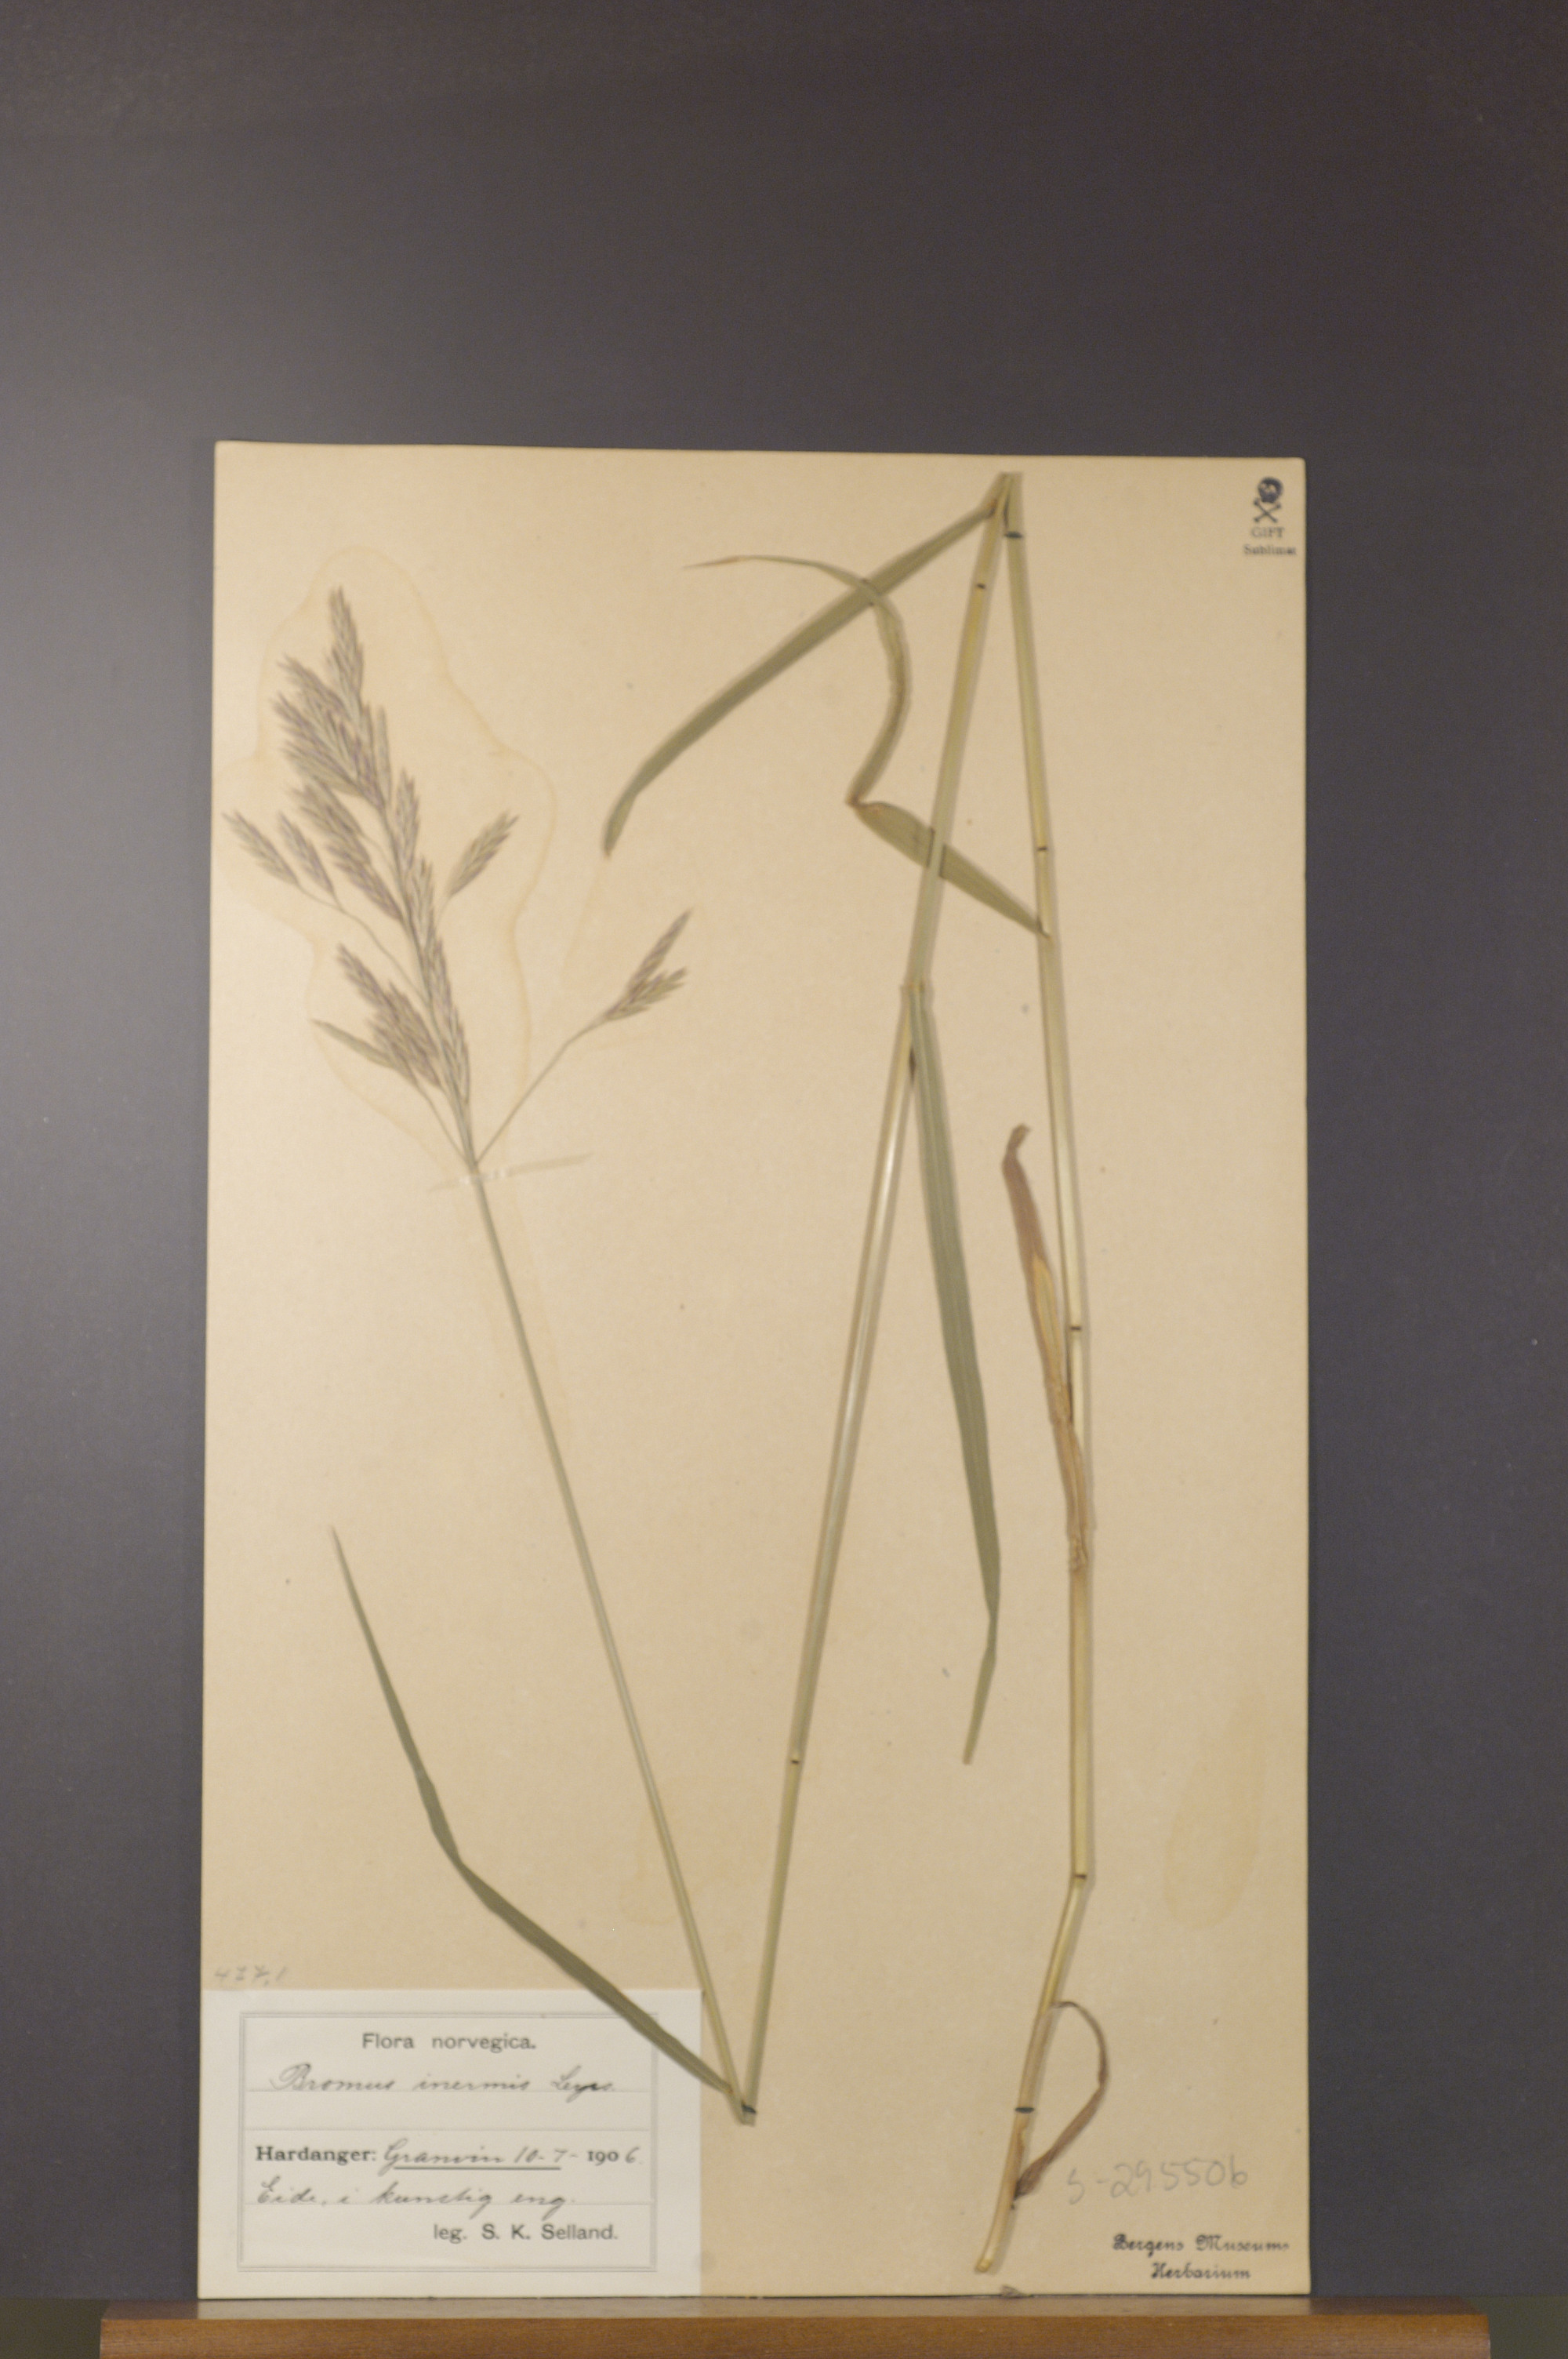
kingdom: Plantae
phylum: Tracheophyta
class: Liliopsida
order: Poales
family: Poaceae
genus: Bromus
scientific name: Bromus inermis
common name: Smooth brome
